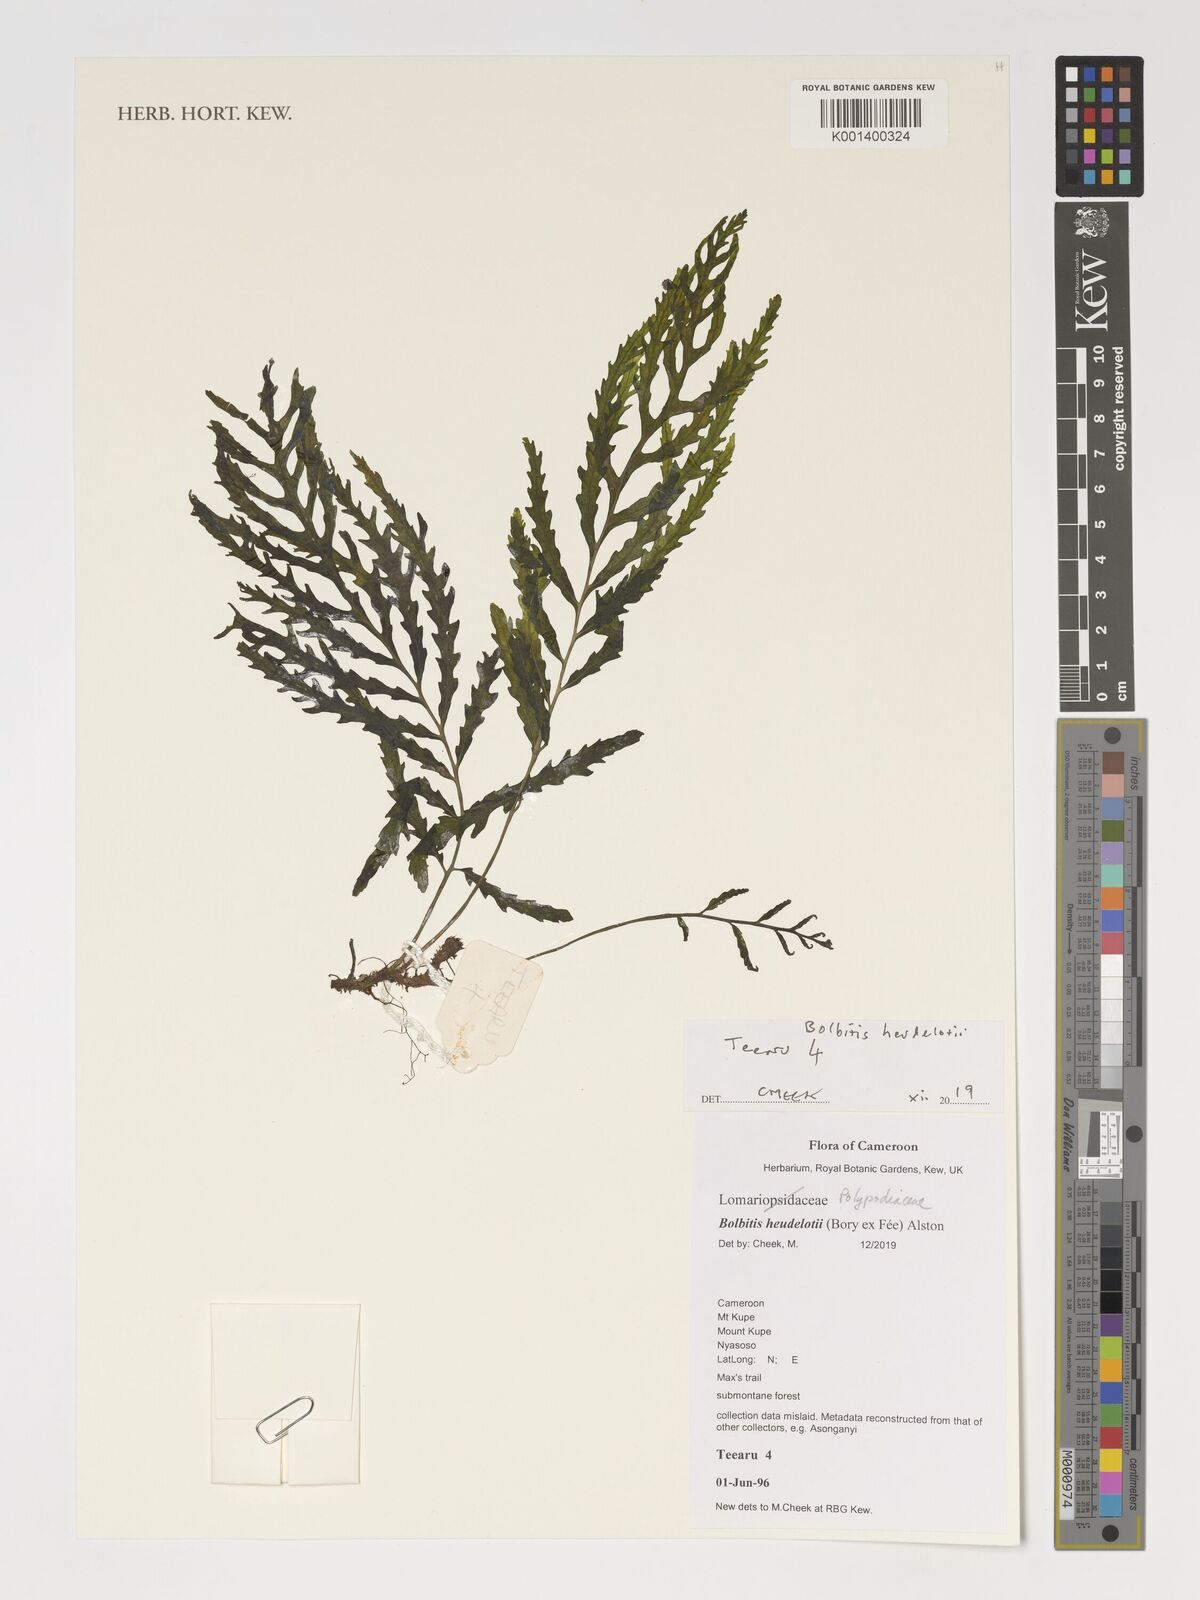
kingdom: Plantae
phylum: Tracheophyta
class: Polypodiopsida
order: Polypodiales
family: Dryopteridaceae
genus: Bolbitis
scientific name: Bolbitis heudelotii
